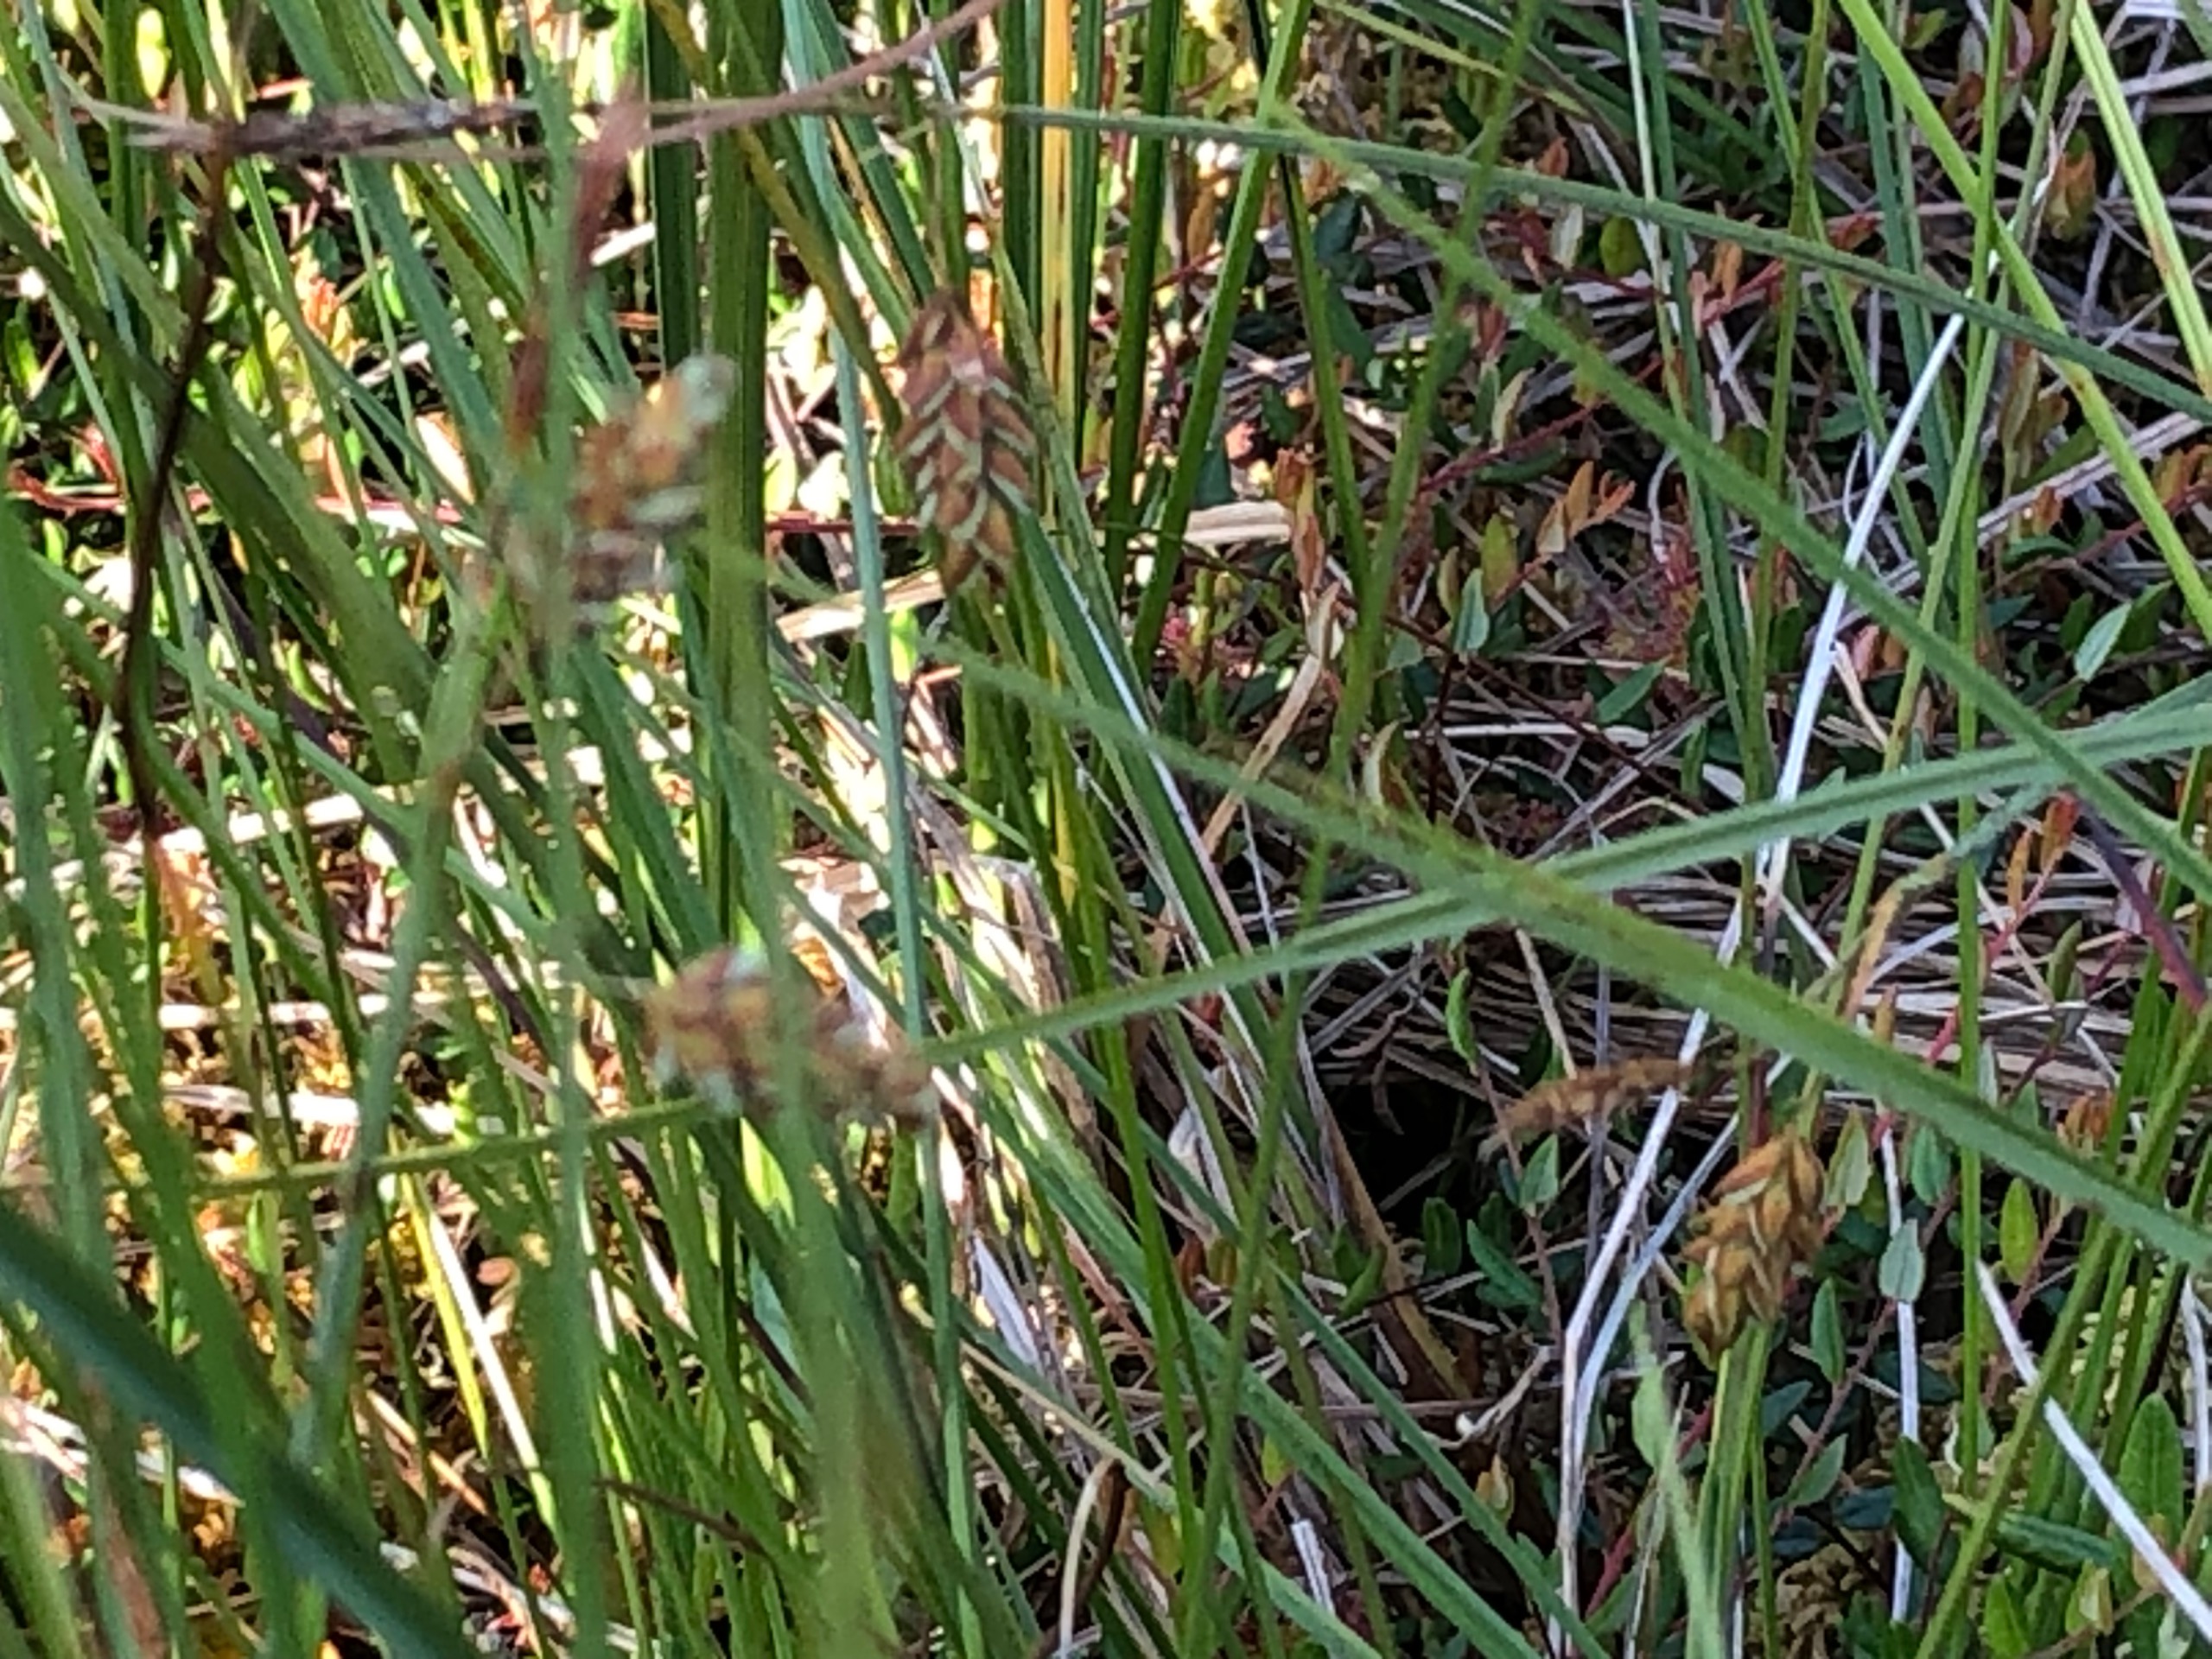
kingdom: Plantae
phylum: Tracheophyta
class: Liliopsida
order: Poales
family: Cyperaceae
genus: Carex
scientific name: Carex limosa
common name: Dynd-star
